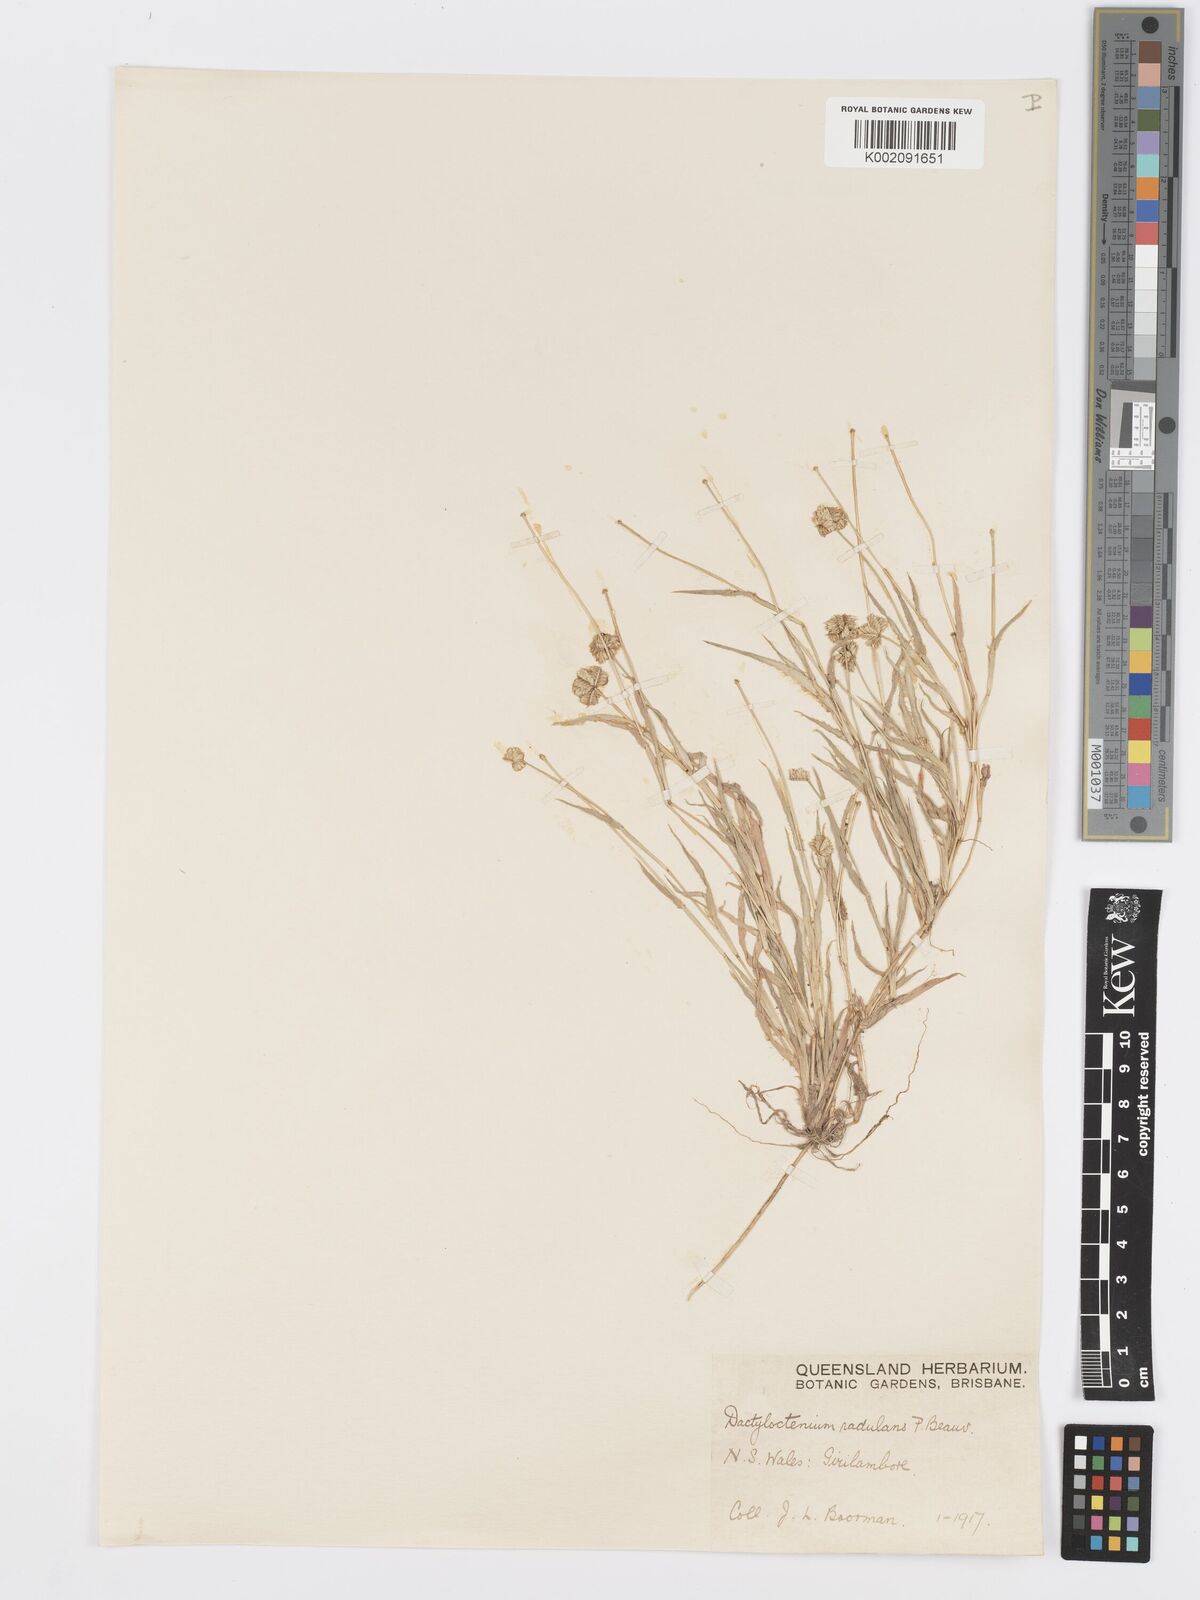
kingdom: Plantae
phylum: Tracheophyta
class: Liliopsida
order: Poales
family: Poaceae
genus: Dactyloctenium
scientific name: Dactyloctenium radulans
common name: Button-grass
